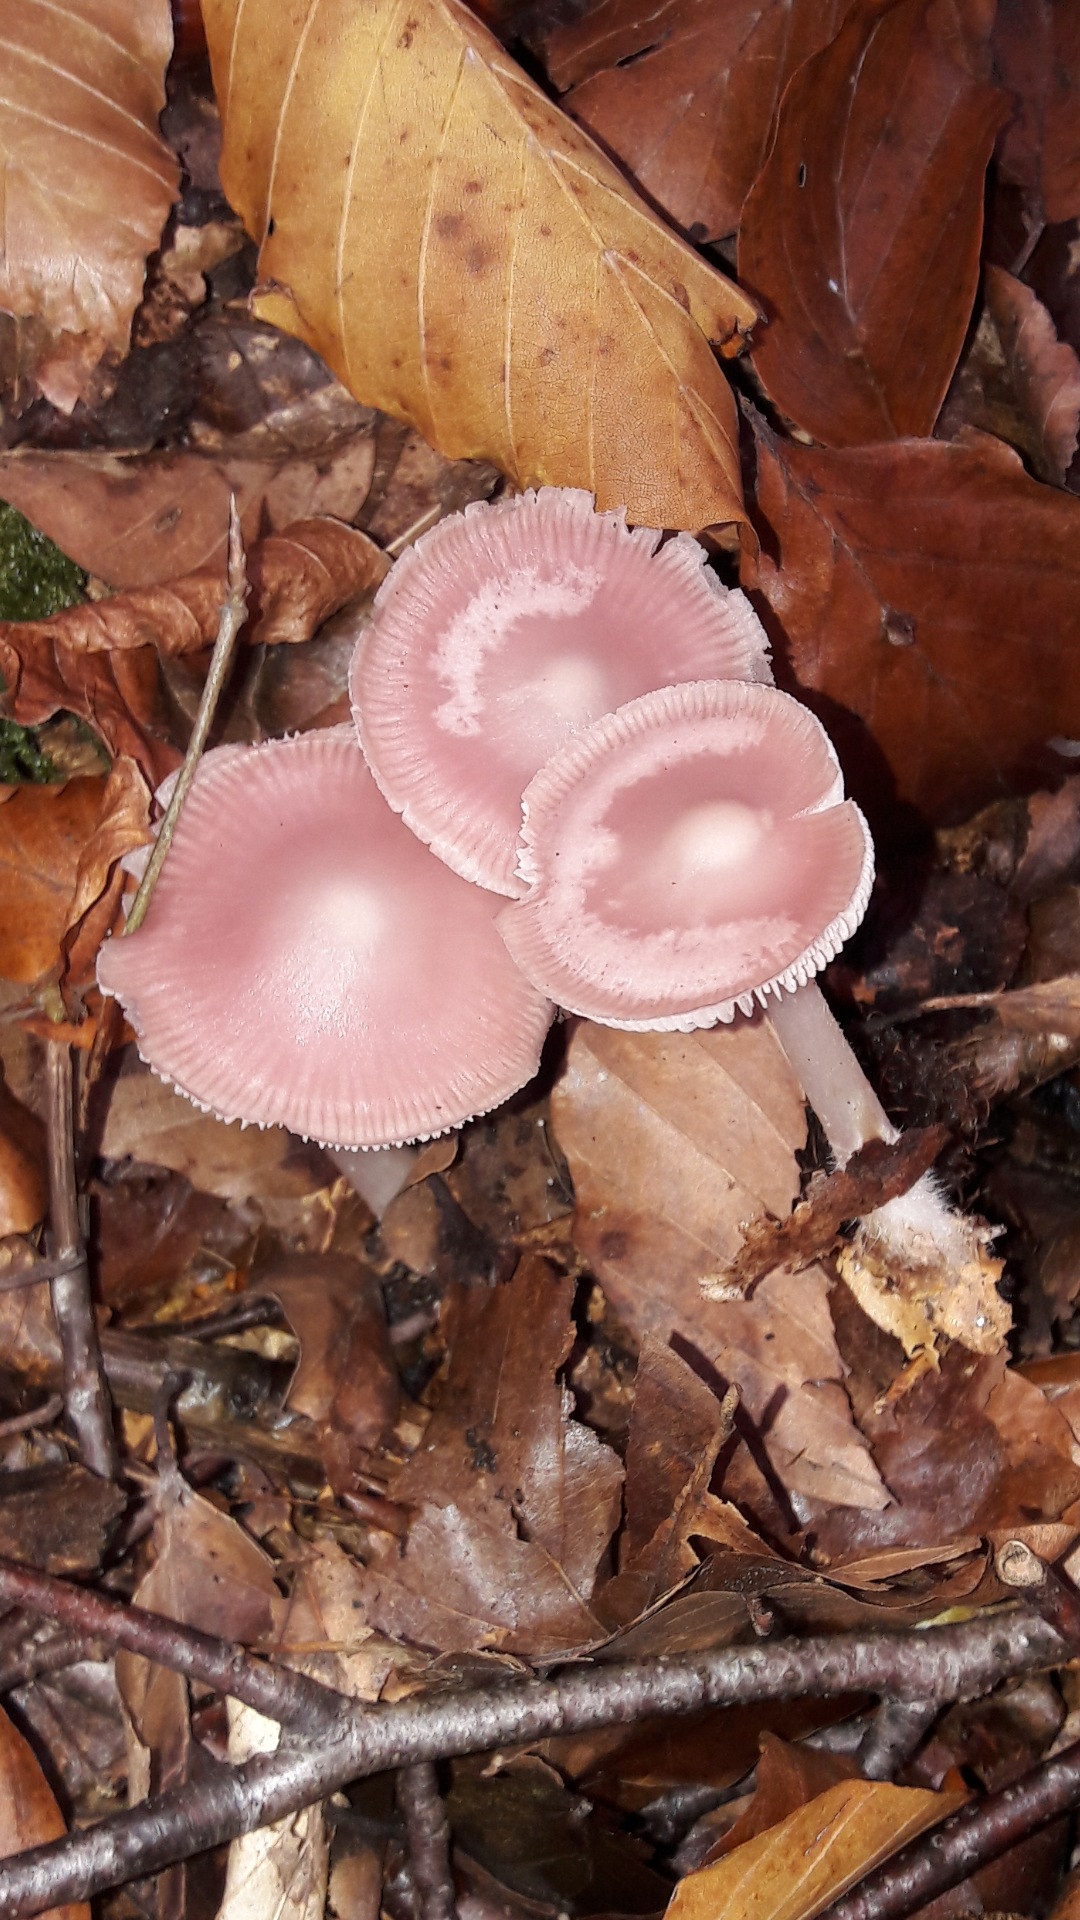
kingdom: Fungi
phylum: Basidiomycota
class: Agaricomycetes
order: Agaricales
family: Mycenaceae
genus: Mycena
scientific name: Mycena rosea
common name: rosa huesvamp
